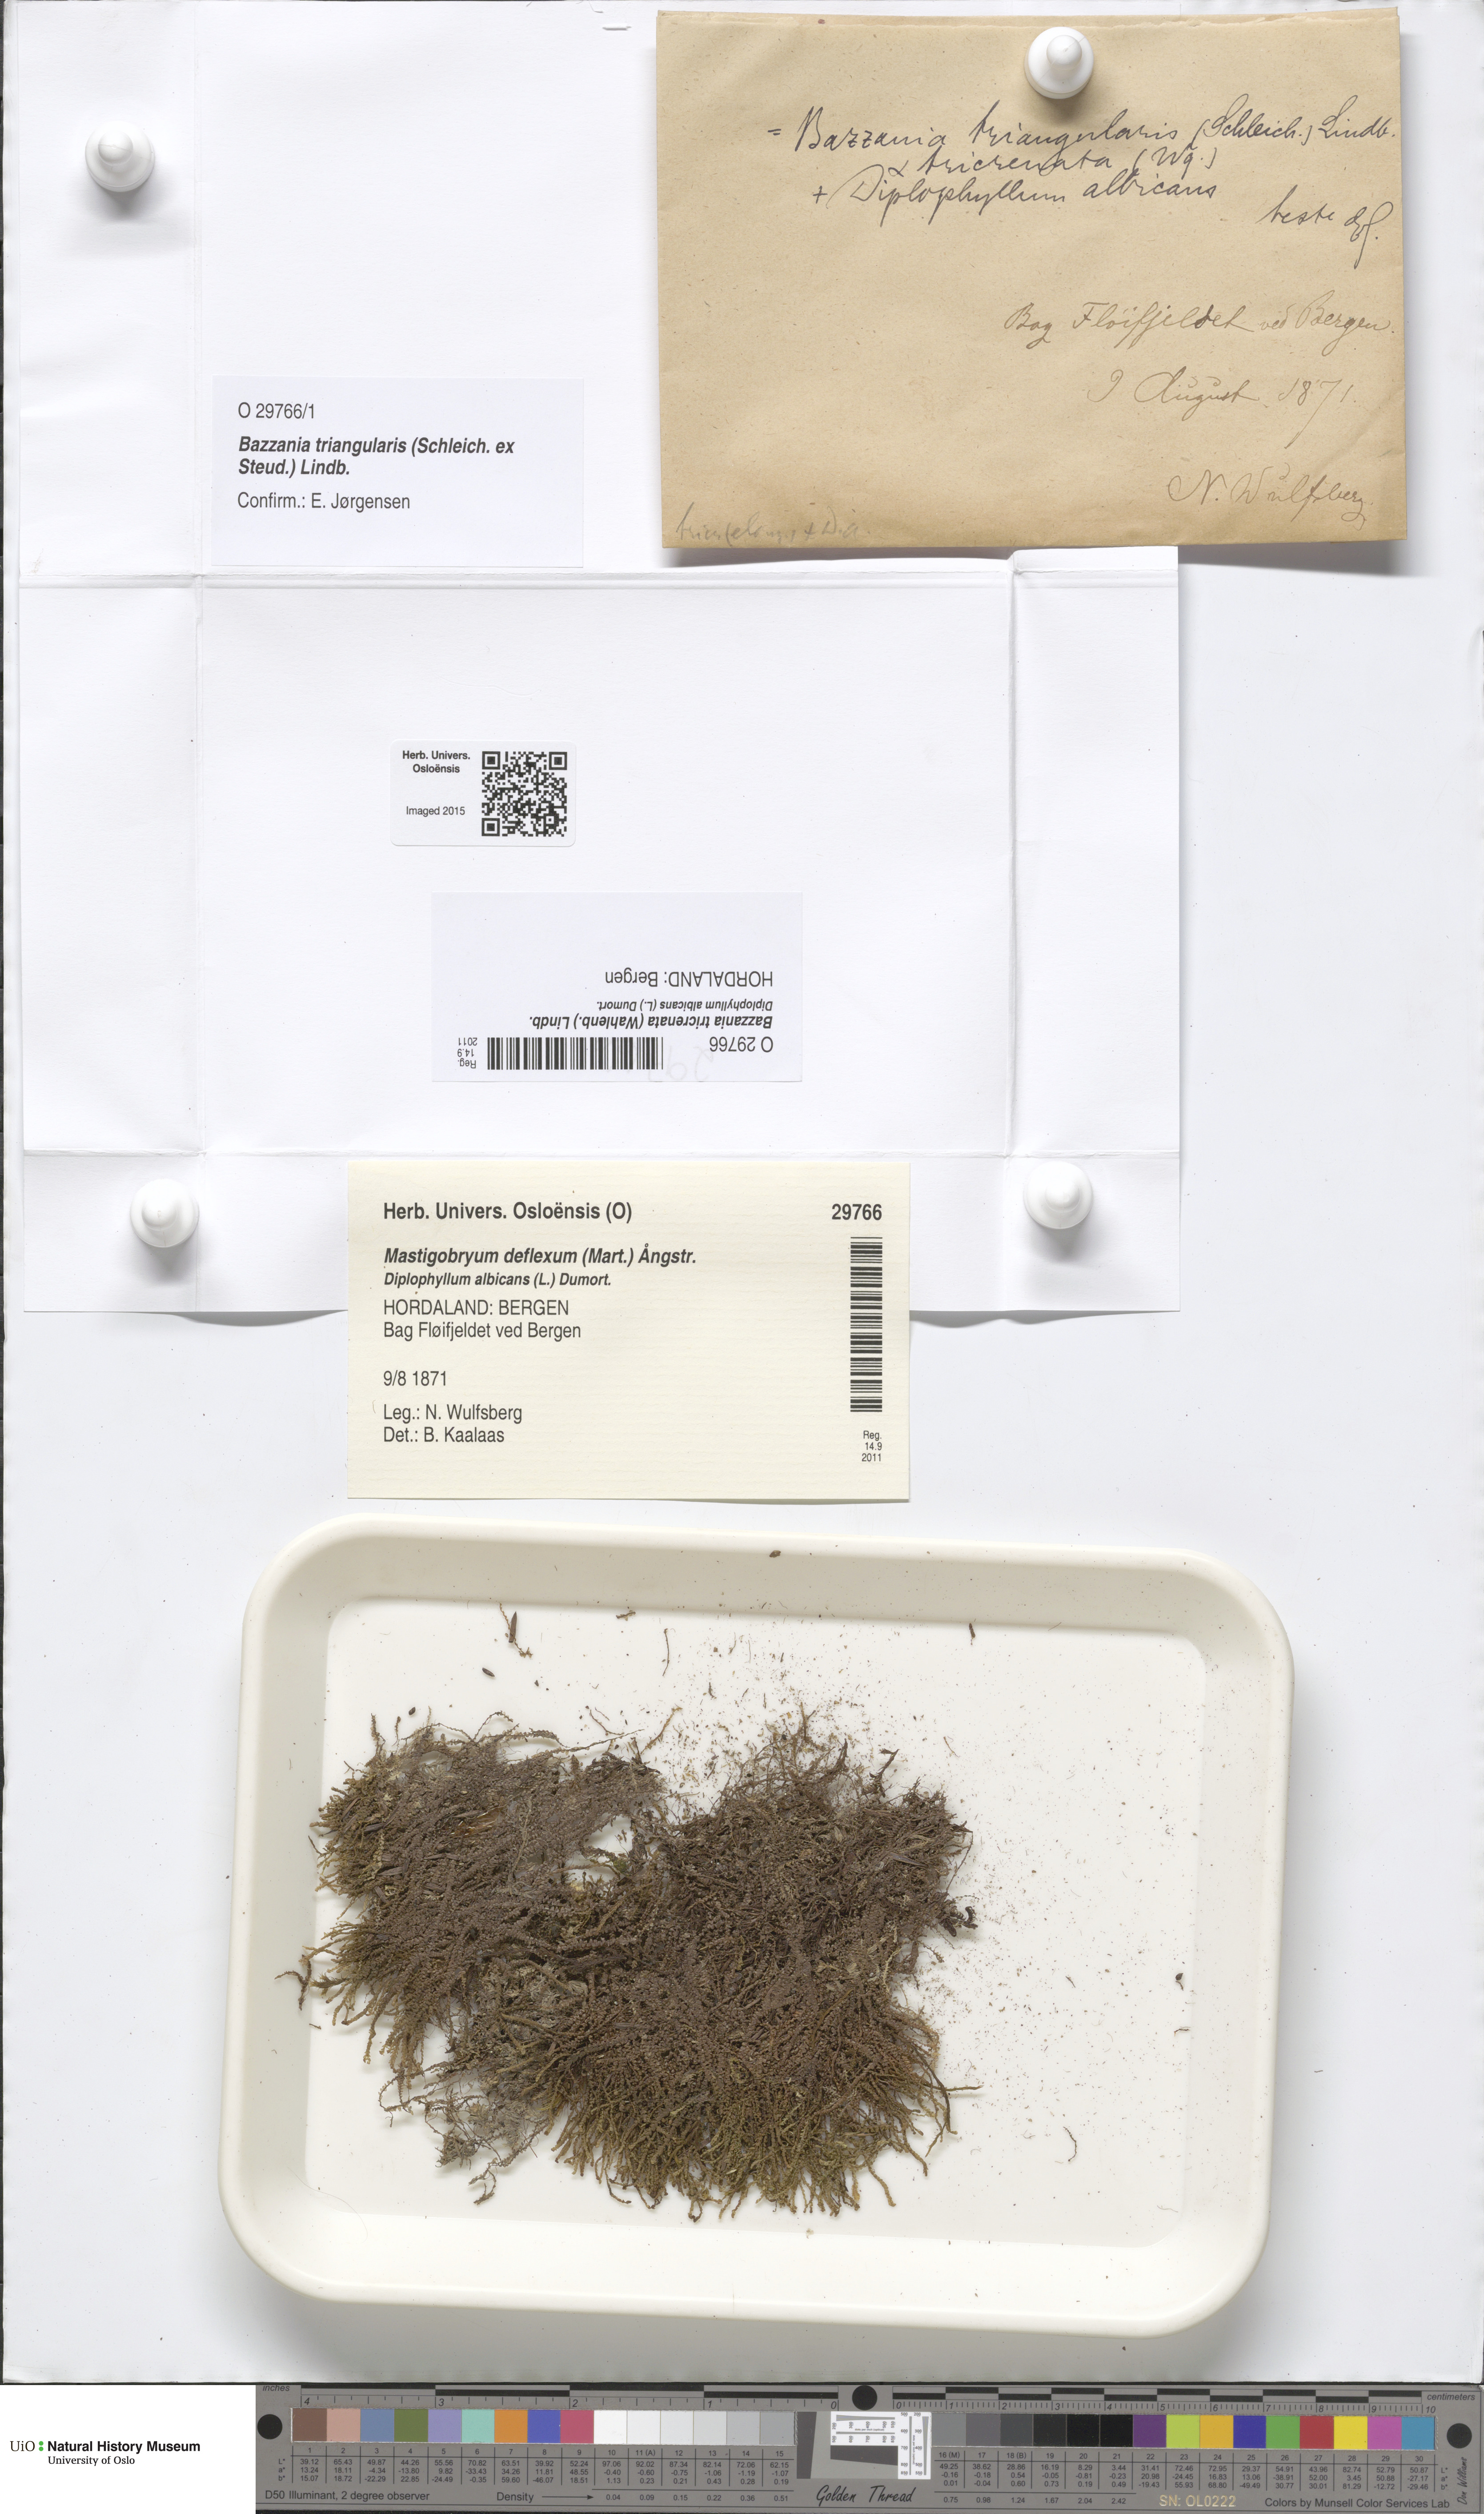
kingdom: Plantae
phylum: Marchantiophyta
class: Jungermanniopsida
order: Jungermanniales
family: Lepidoziaceae
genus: Bazzania
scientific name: Bazzania tricrenata
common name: Lesser whipwort
